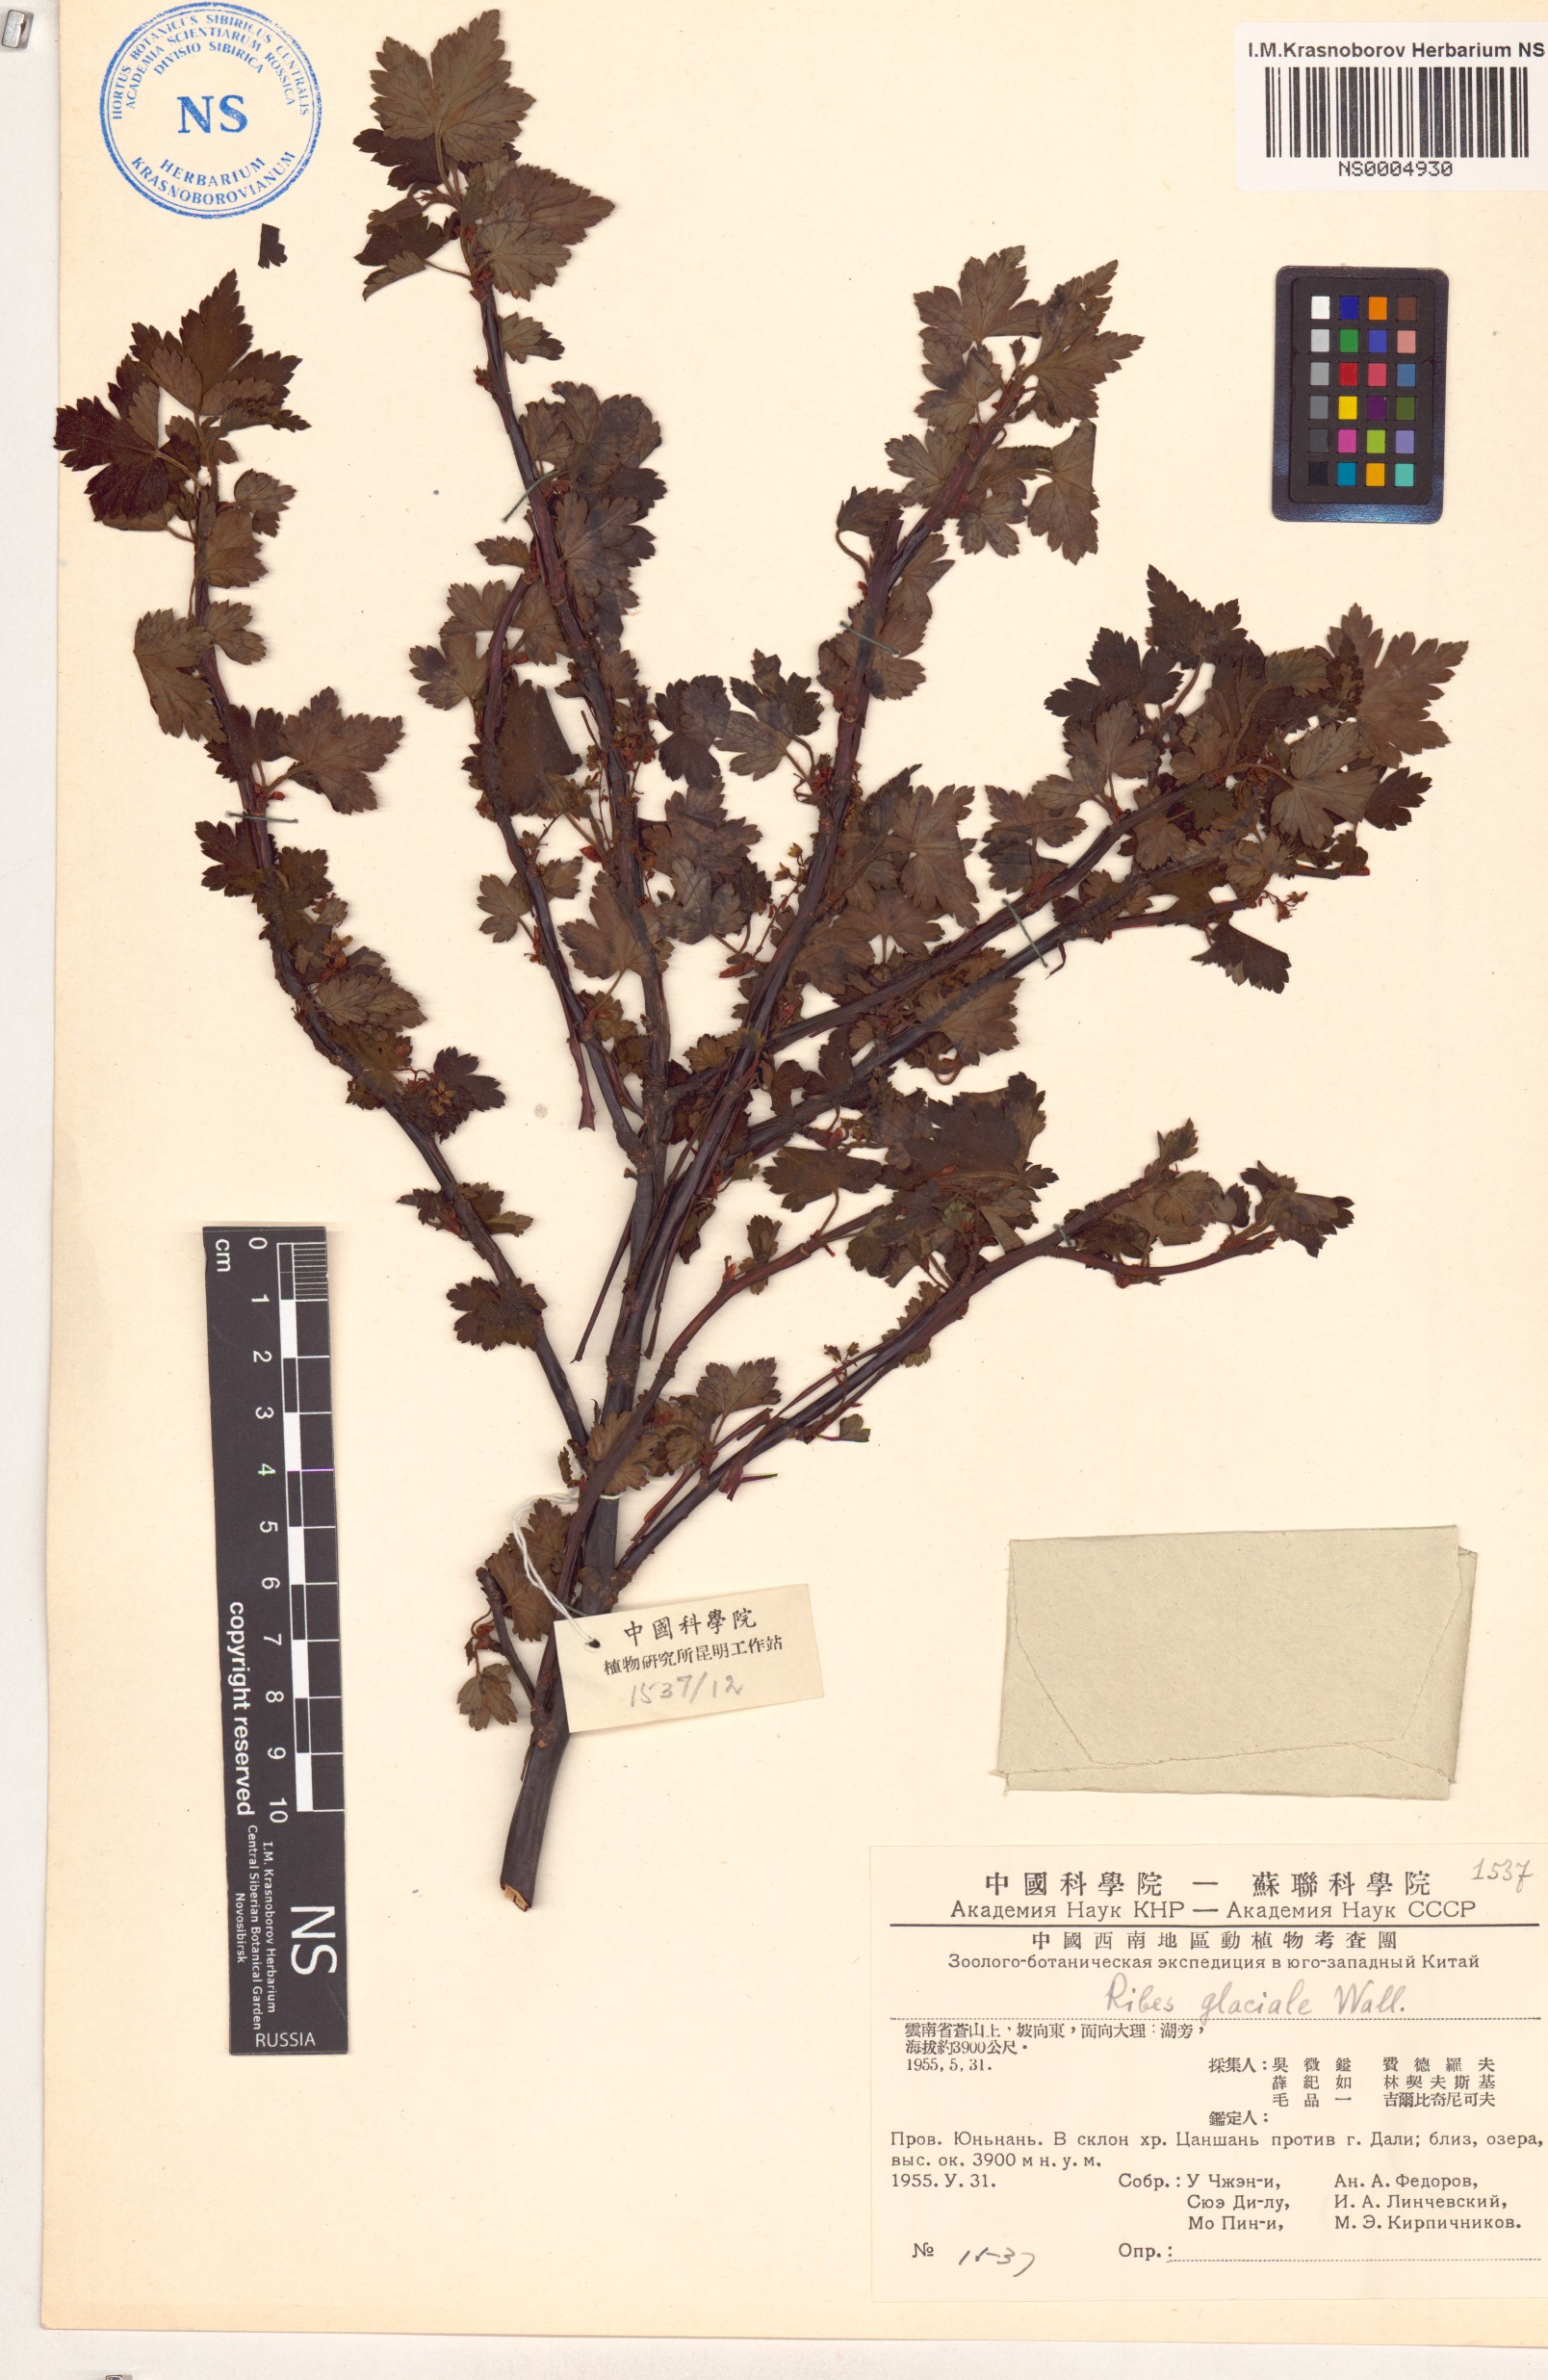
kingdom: Plantae
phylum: Tracheophyta
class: Magnoliopsida
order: Saxifragales
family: Grossulariaceae
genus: Ribes
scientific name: Ribes glaciale
